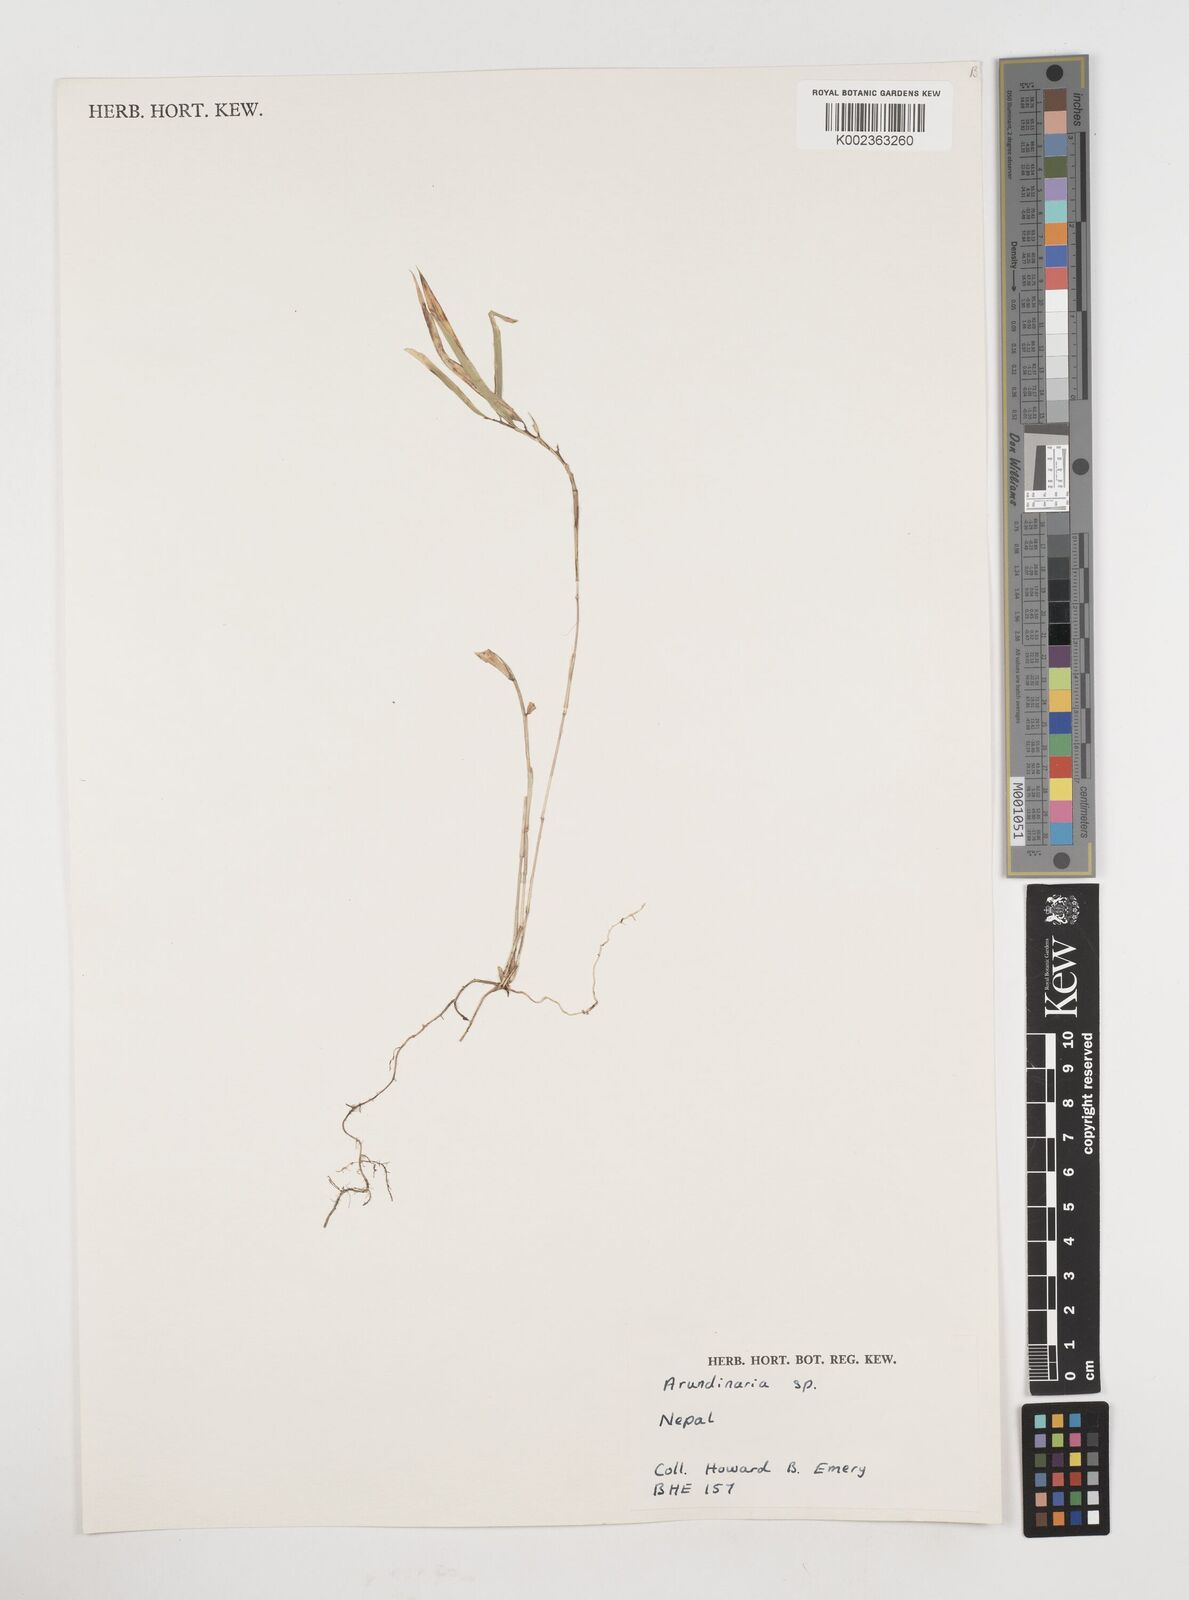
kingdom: Plantae
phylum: Tracheophyta
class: Liliopsida
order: Poales
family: Poaceae
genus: Fargesia
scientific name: Fargesia
